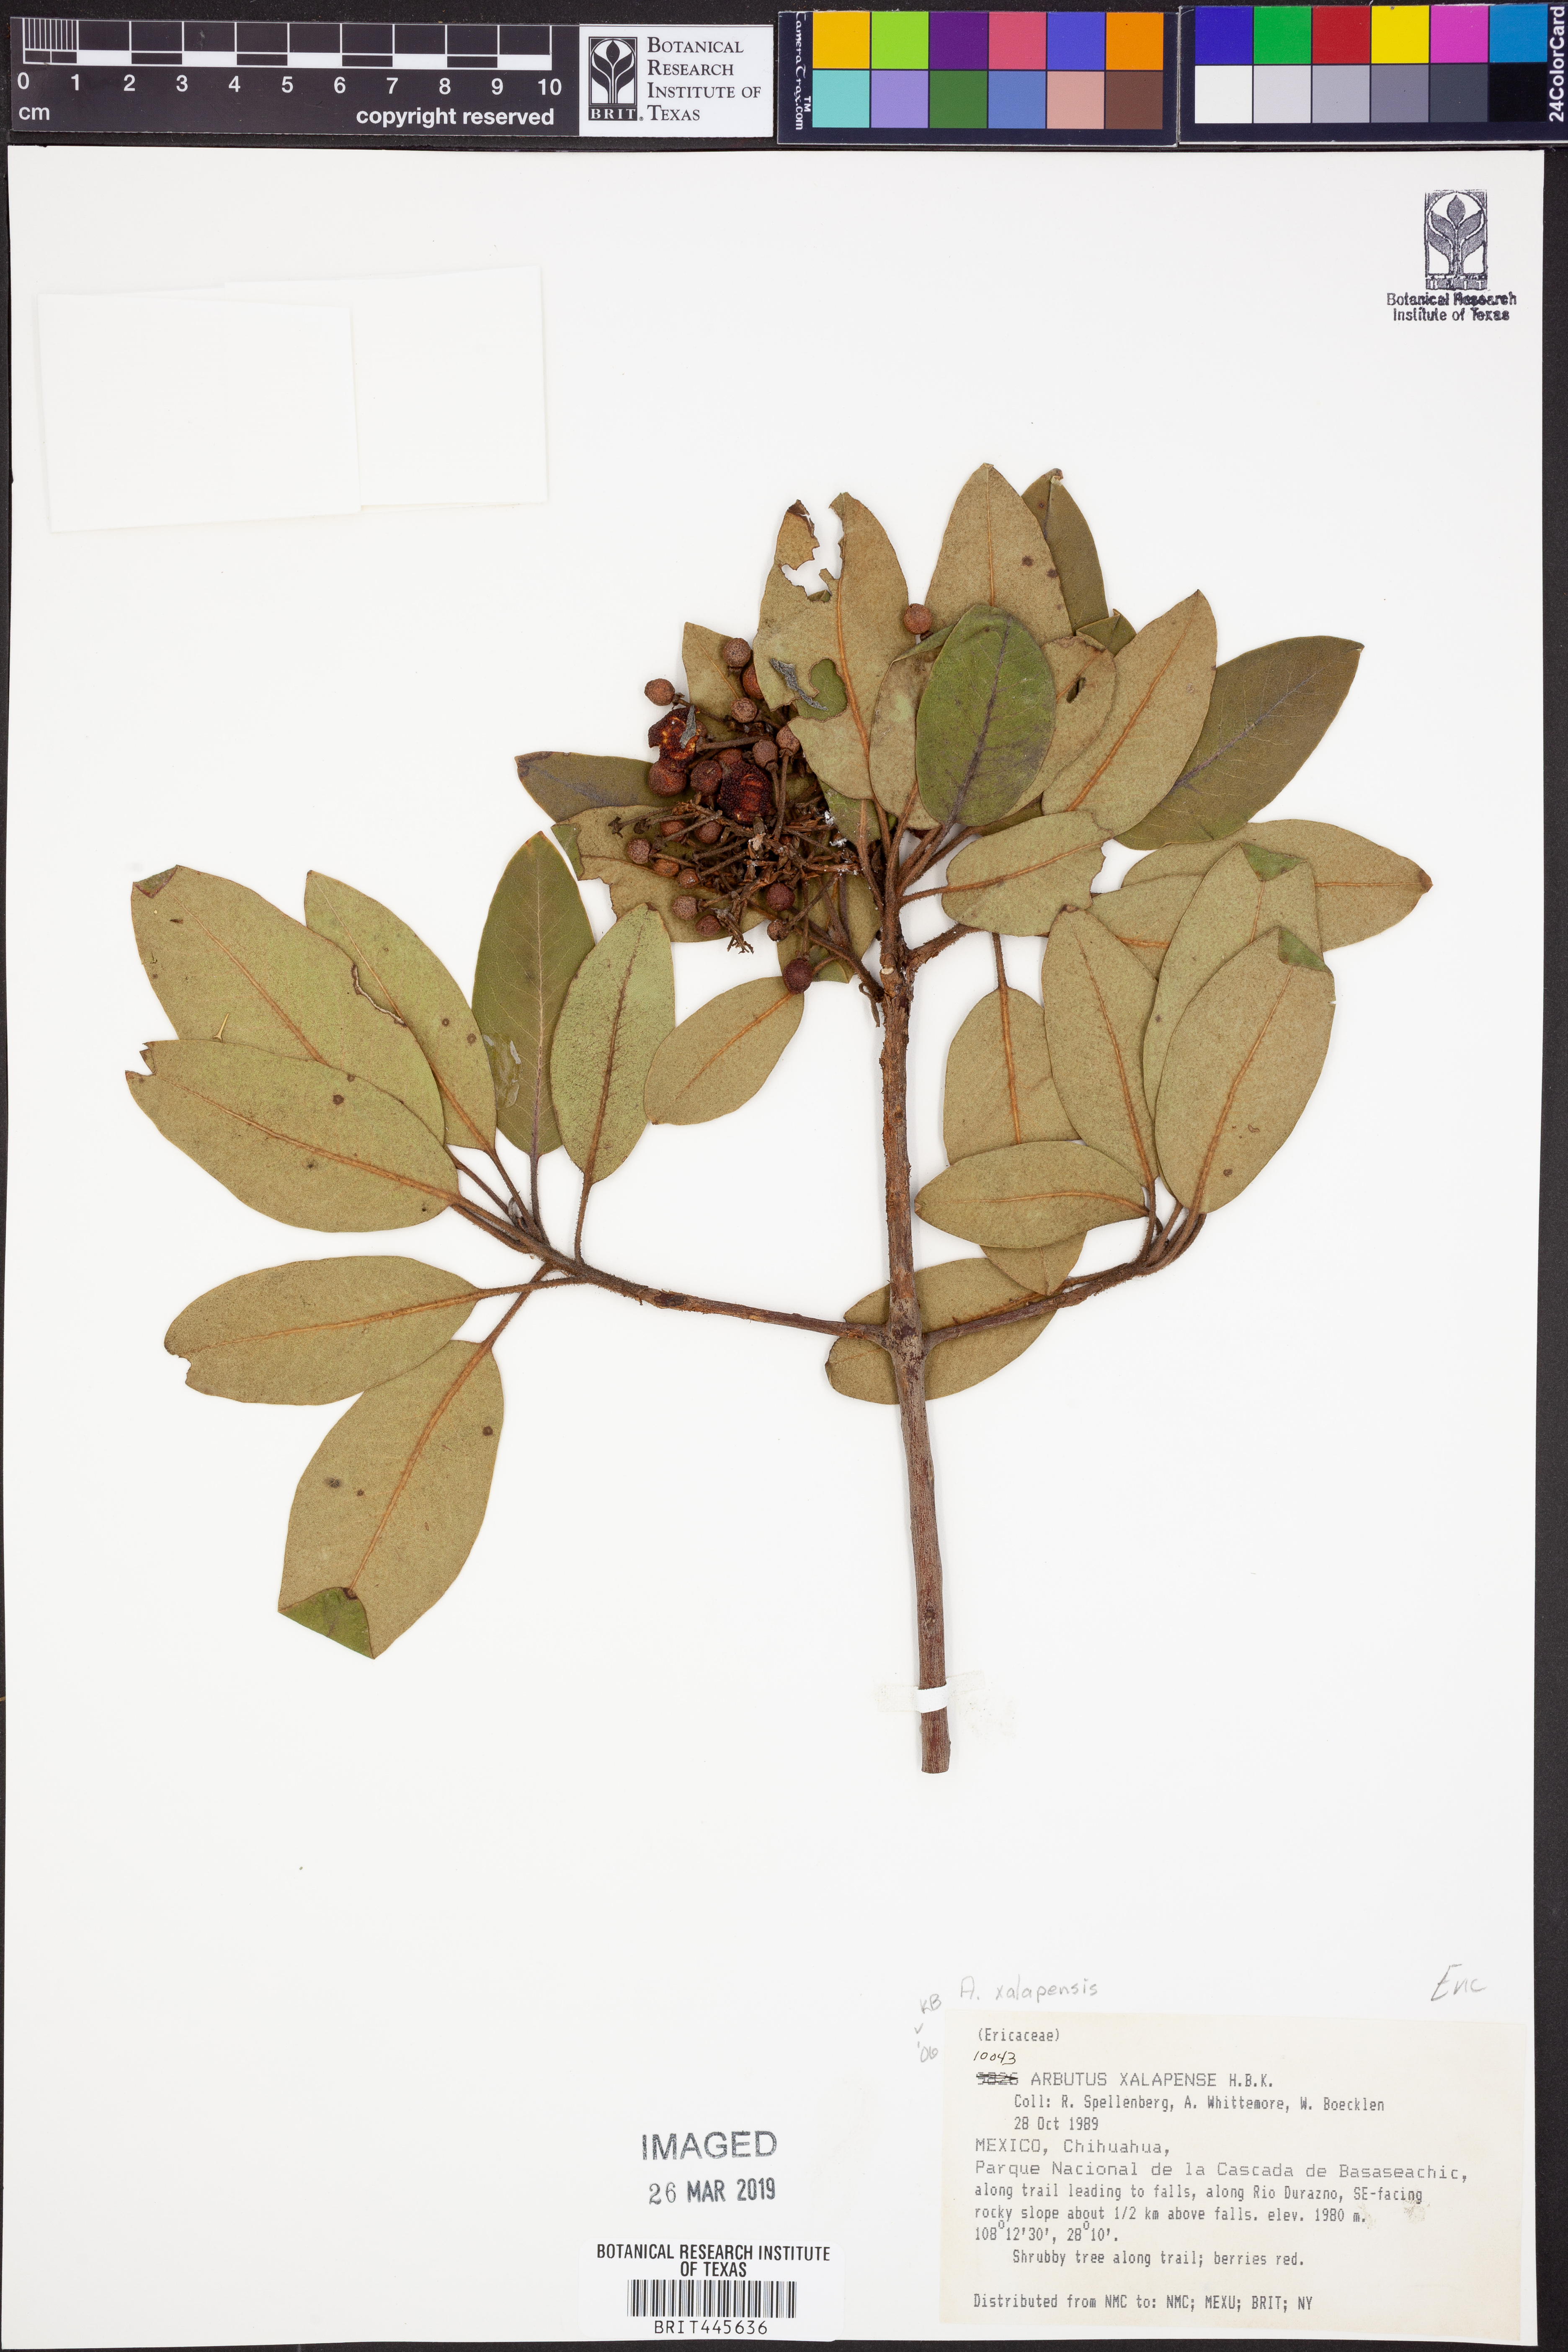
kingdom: Plantae
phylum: Tracheophyta
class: Magnoliopsida
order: Ericales
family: Ericaceae
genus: Arbutus
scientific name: Arbutus xalapensis
